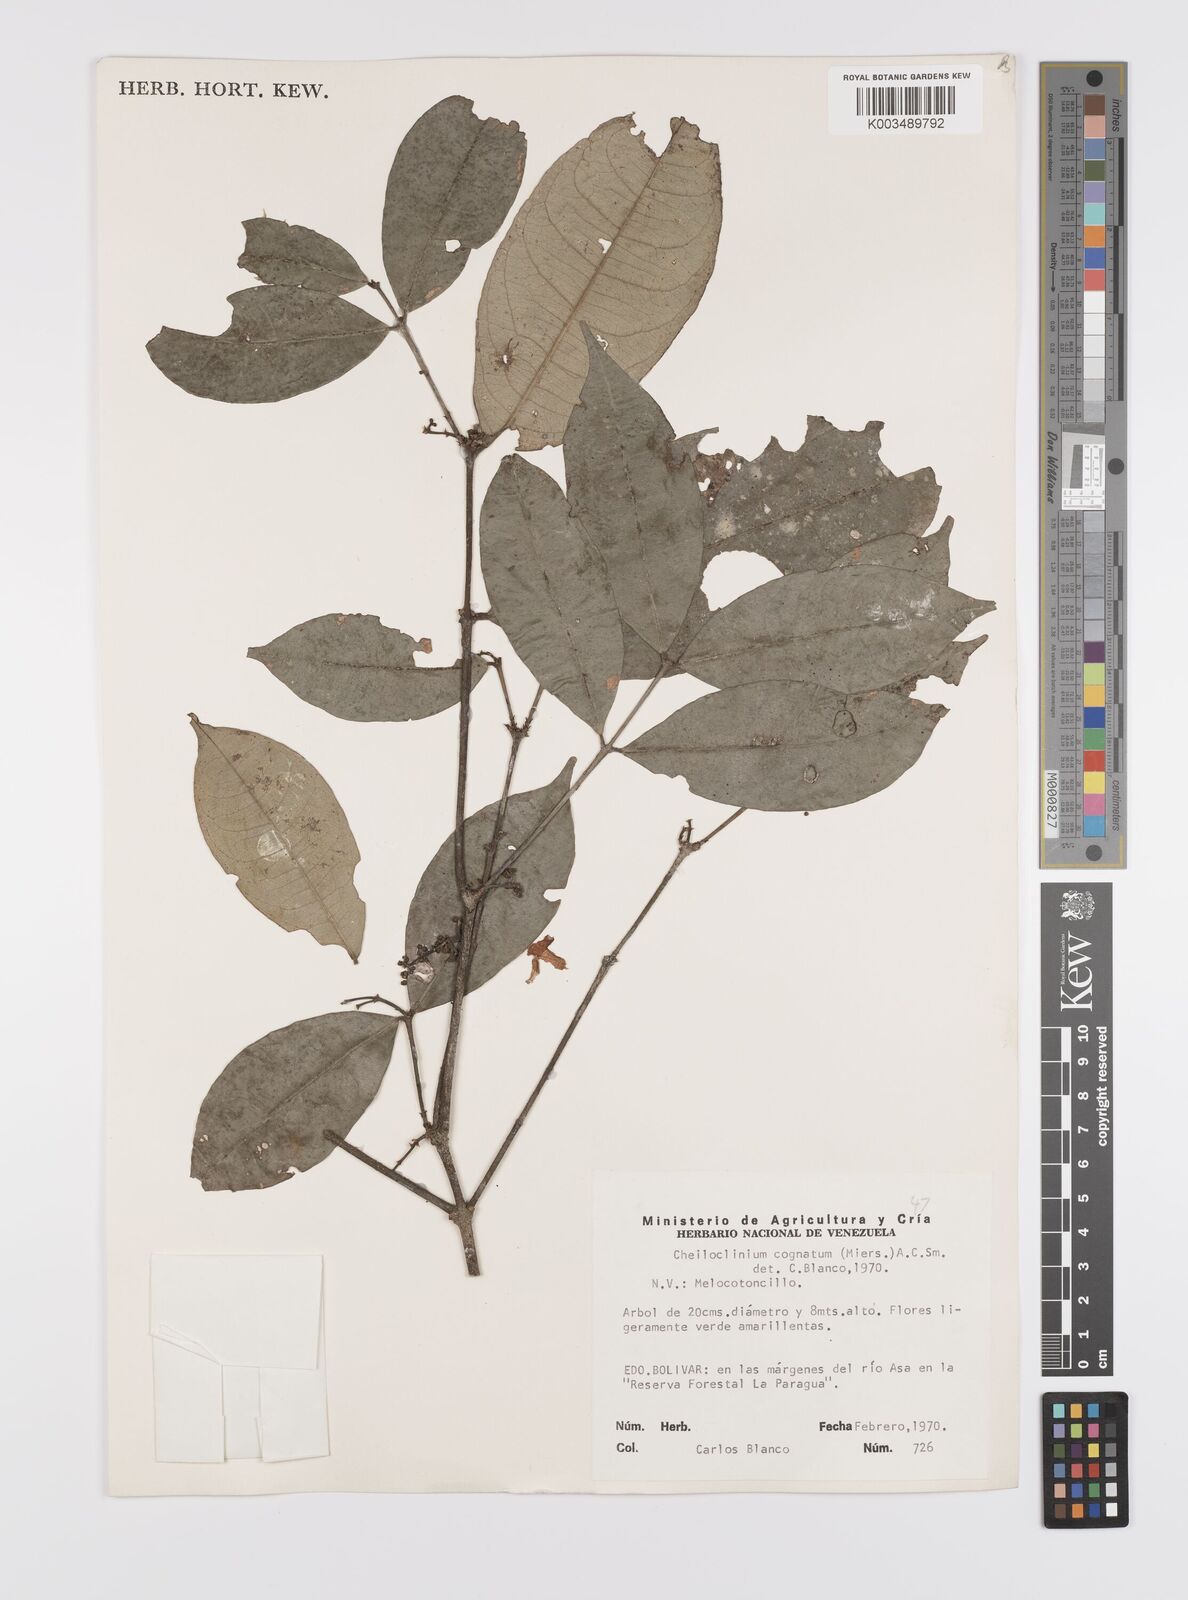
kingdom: Plantae
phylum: Tracheophyta
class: Magnoliopsida
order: Celastrales
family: Celastraceae
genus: Cheiloclinium
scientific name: Cheiloclinium cognatum
